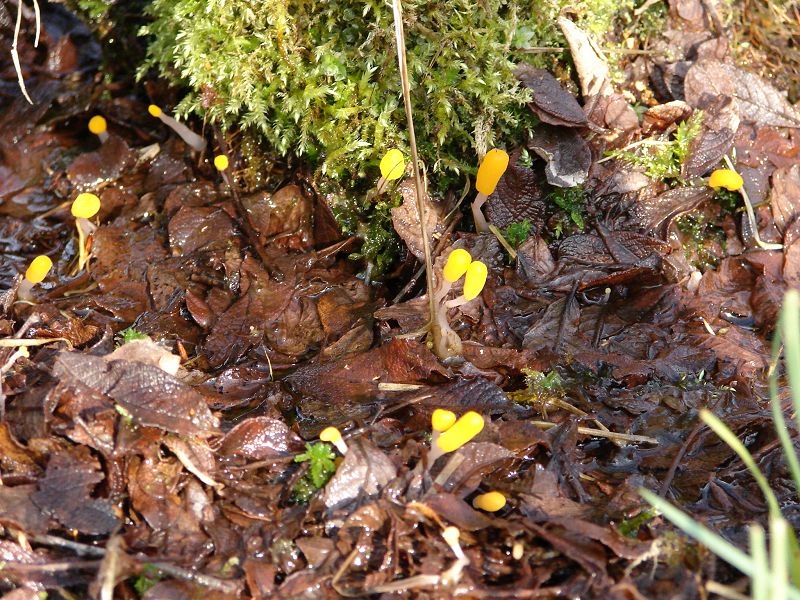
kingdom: Fungi
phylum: Ascomycota
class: Leotiomycetes
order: Helotiales
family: Cenangiaceae
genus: Mitrula
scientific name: Mitrula paludosa
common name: gul nøkketunge
